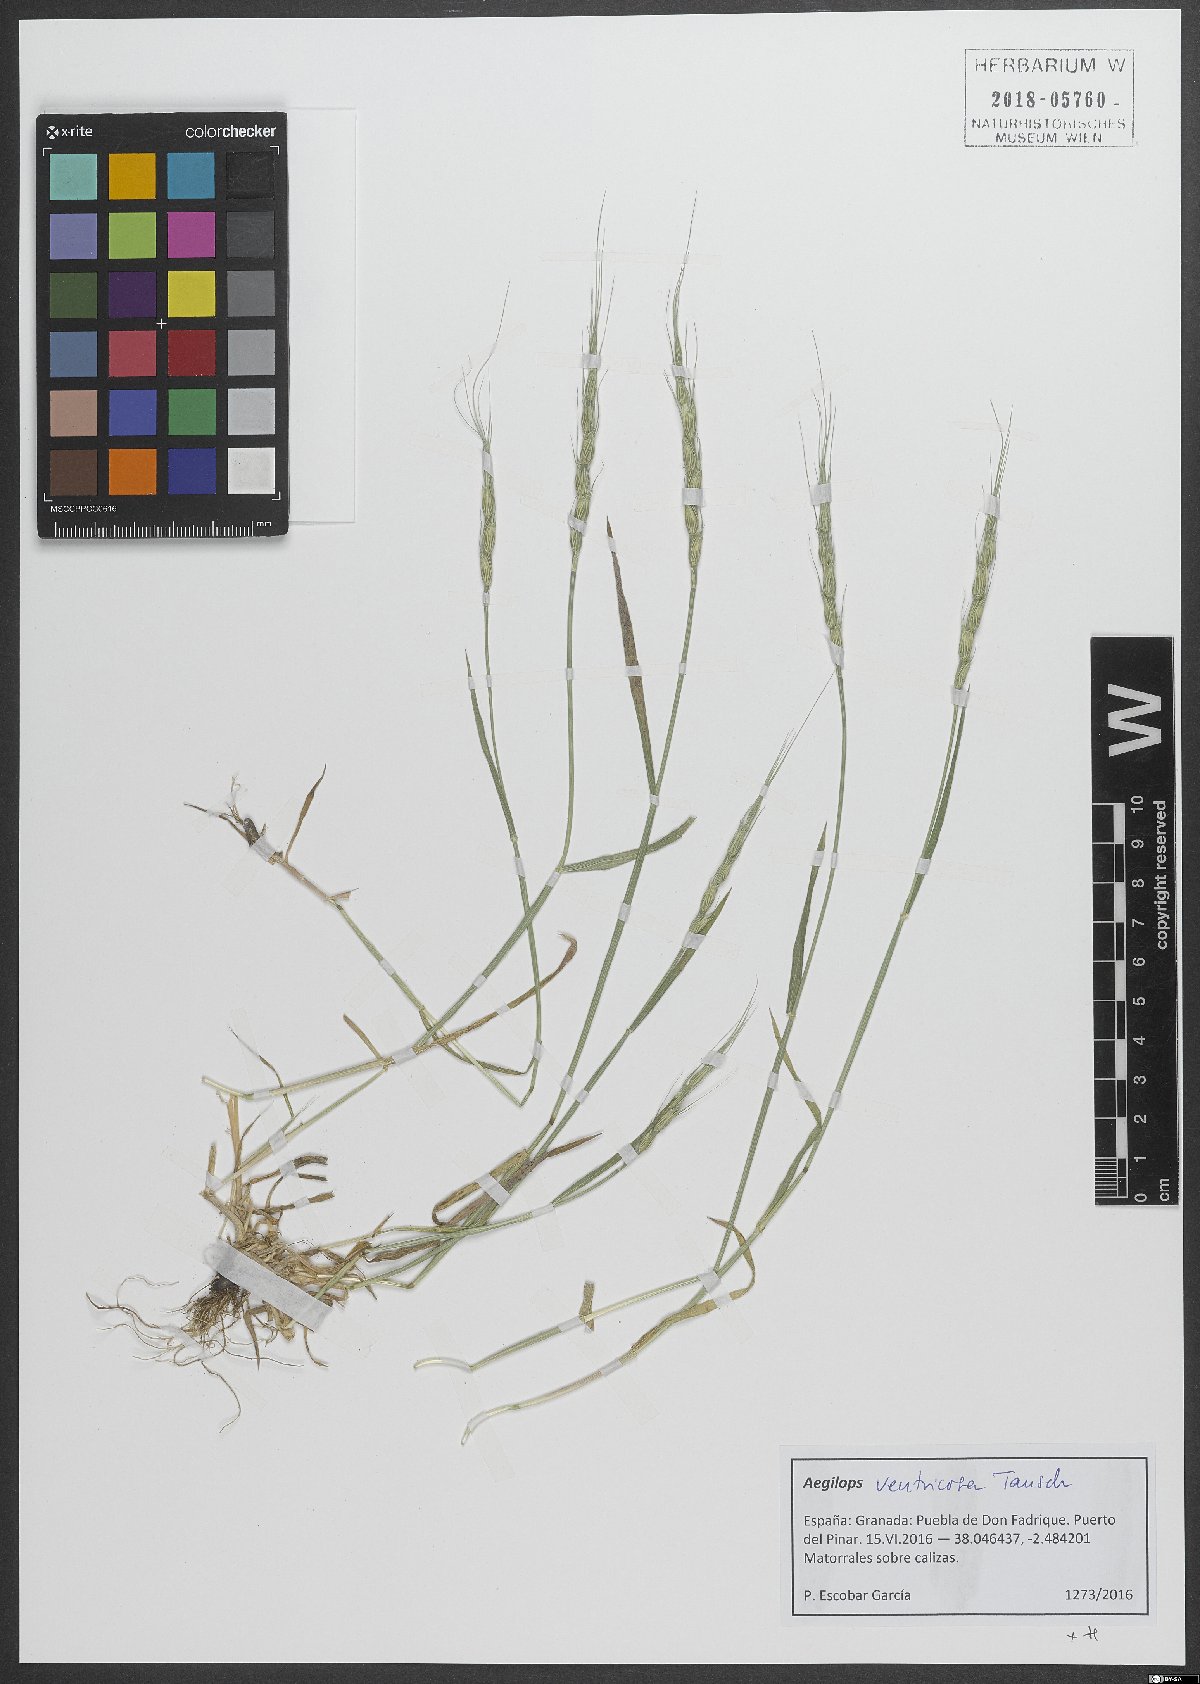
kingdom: Plantae
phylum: Tracheophyta
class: Liliopsida
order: Poales
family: Poaceae
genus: Aegilops
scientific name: Aegilops ventricosa
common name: Swollen goat grass
